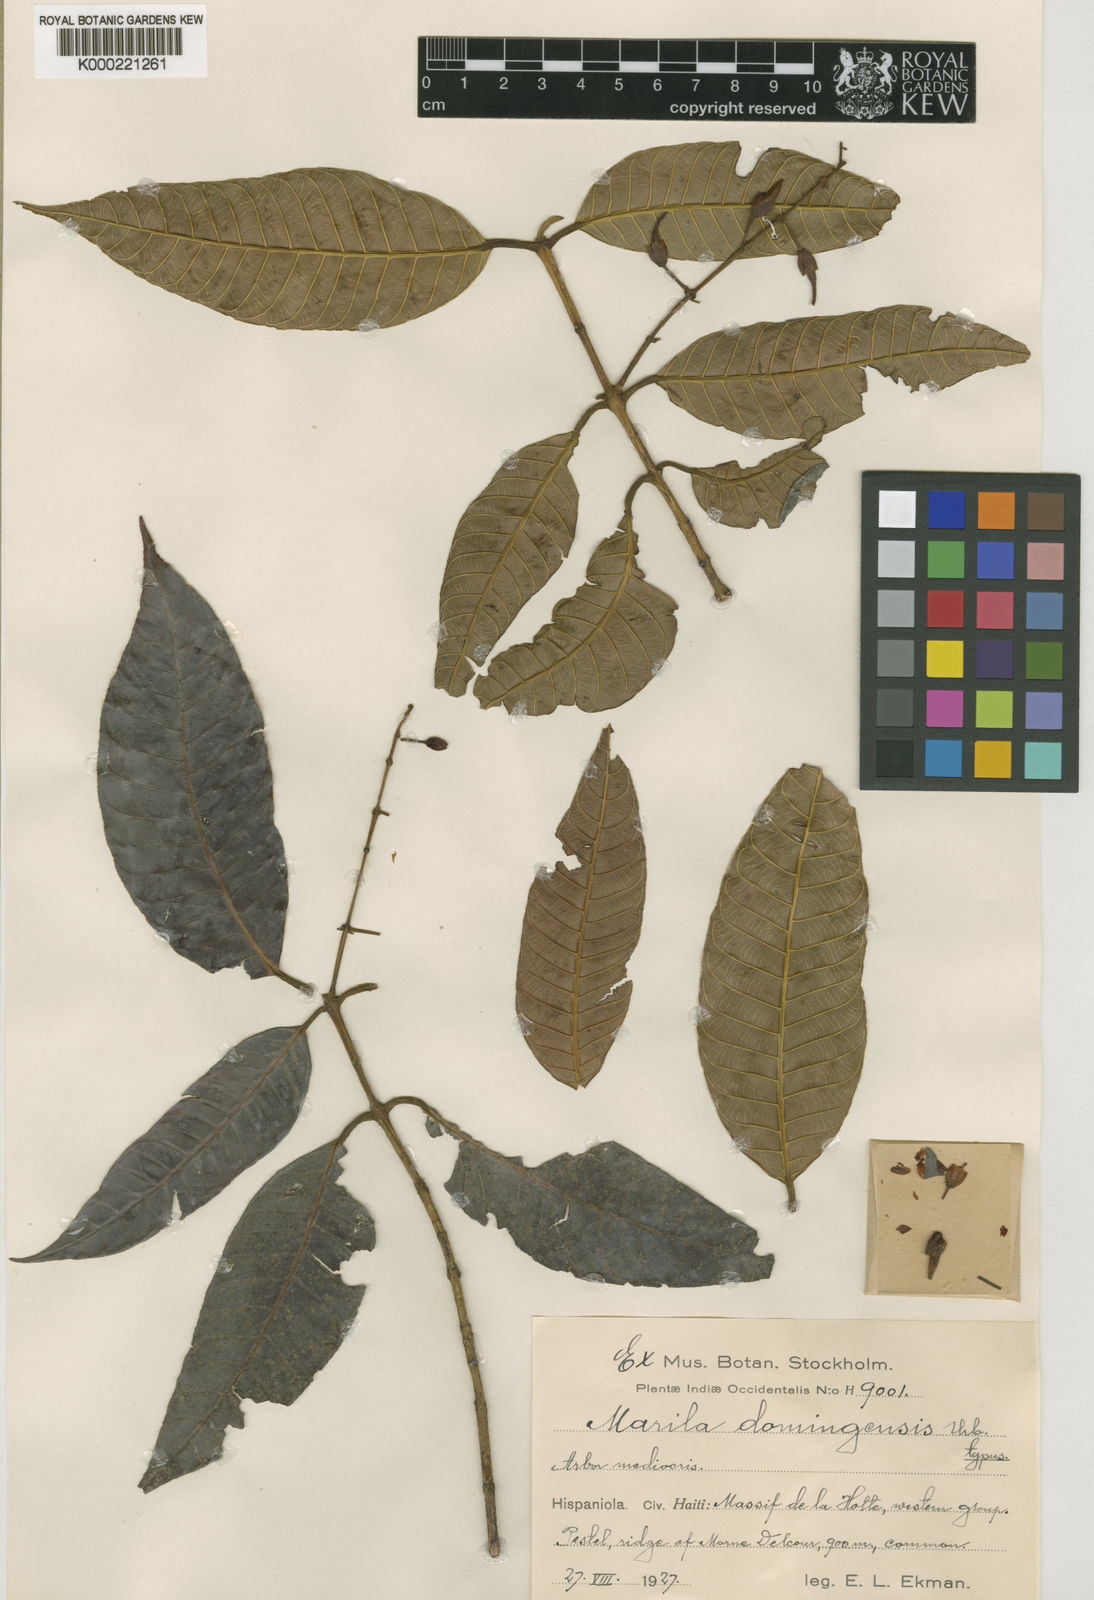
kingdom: Plantae
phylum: Tracheophyta
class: Magnoliopsida
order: Malpighiales
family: Calophyllaceae
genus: Marila
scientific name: Marila domingensis
